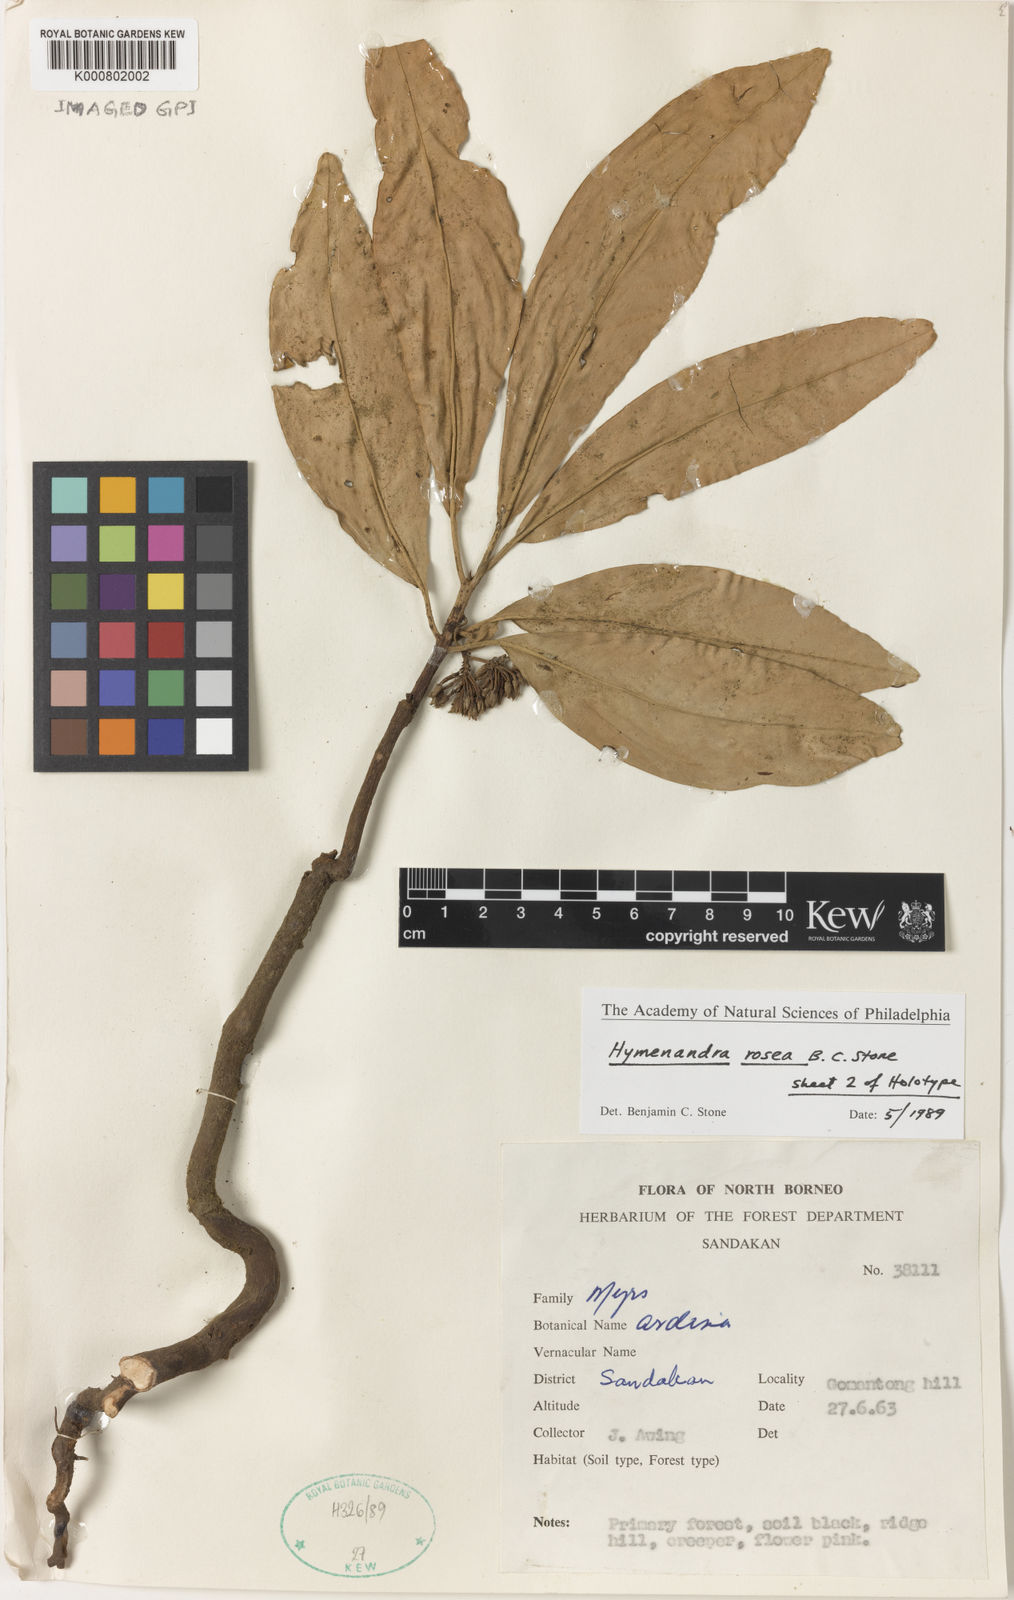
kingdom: Plantae
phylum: Tracheophyta
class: Magnoliopsida
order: Ericales
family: Primulaceae
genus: Hymenandra
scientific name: Hymenandra rosea
